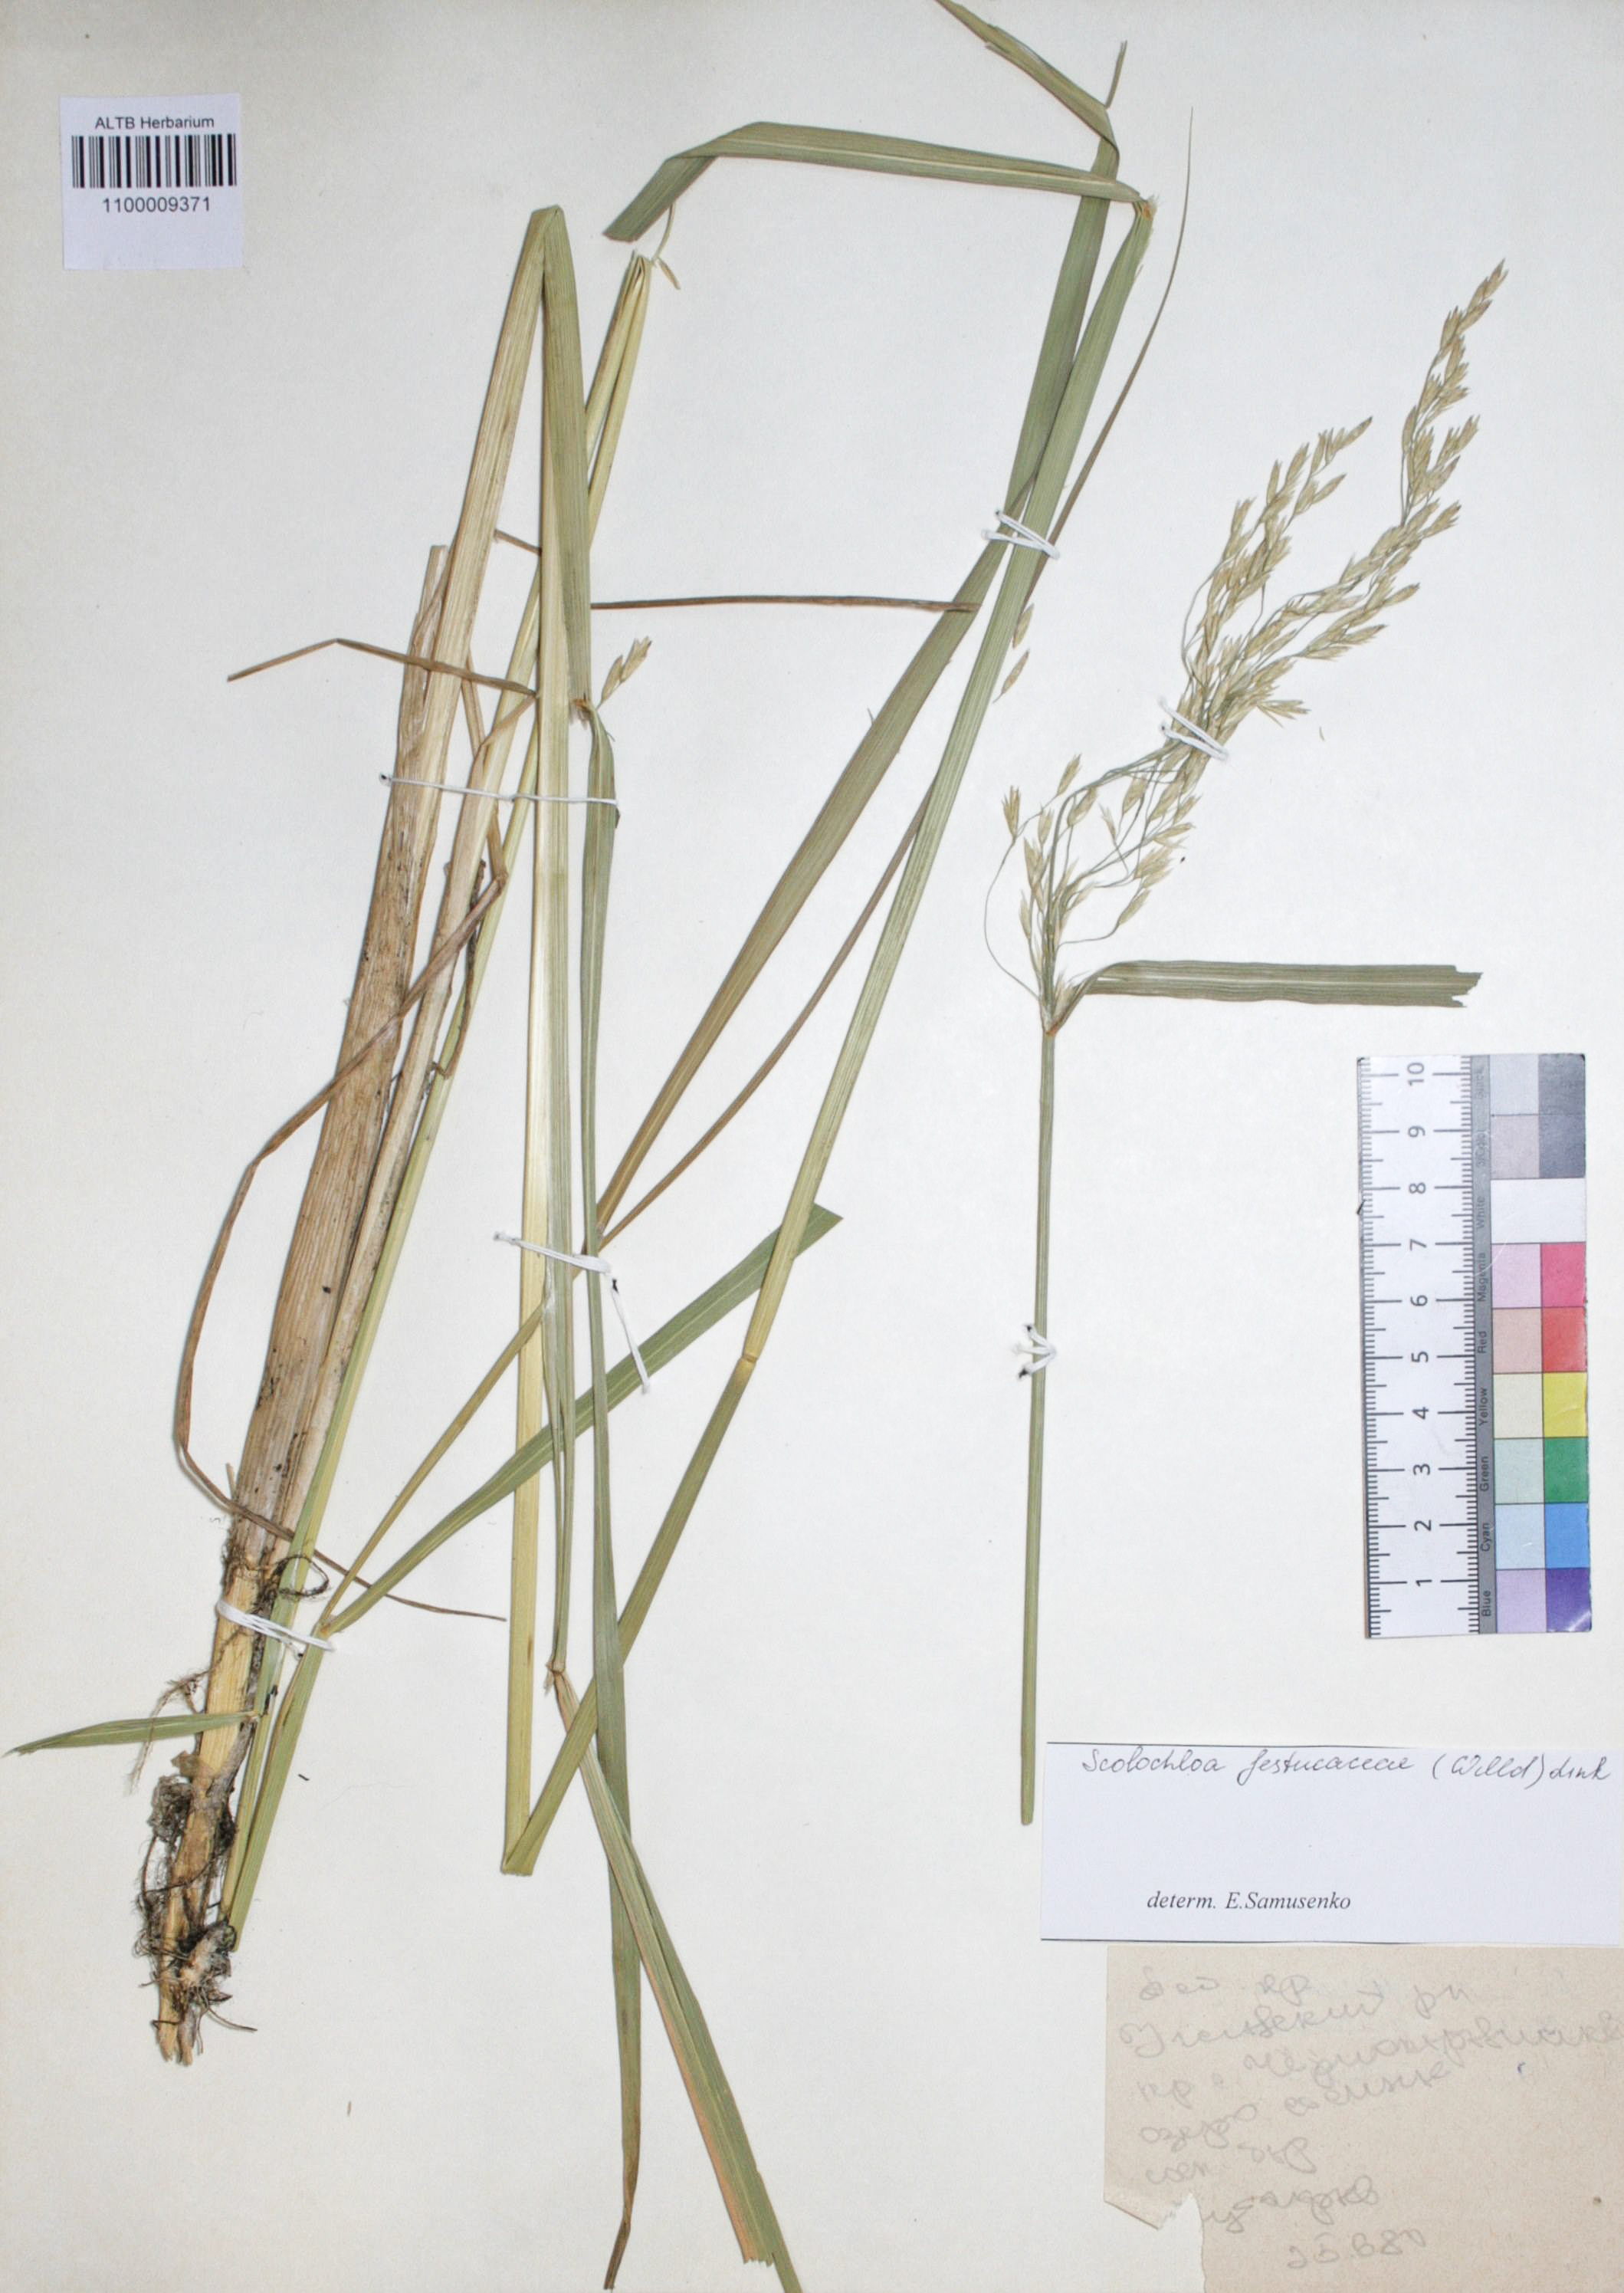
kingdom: Plantae
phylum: Tracheophyta
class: Liliopsida
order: Poales
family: Poaceae
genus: Scolochloa
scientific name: Scolochloa festucacea
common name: Common rivergrass
